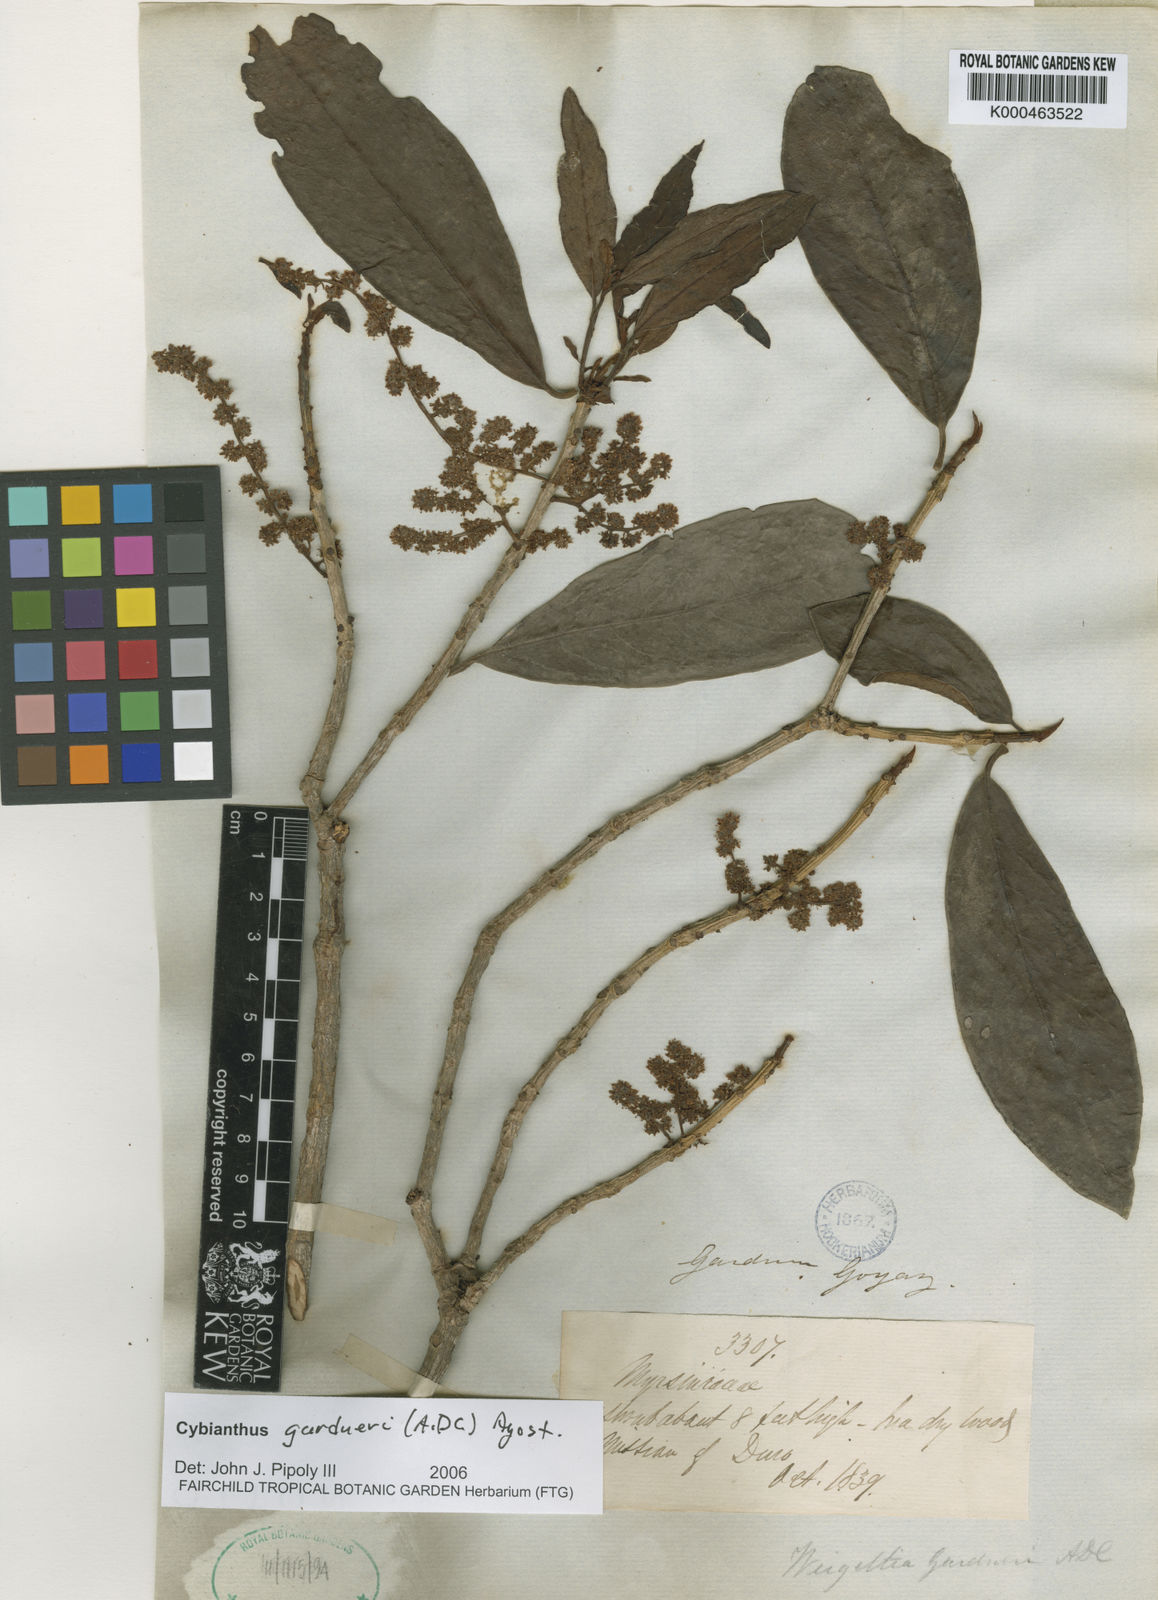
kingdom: Plantae
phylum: Tracheophyta
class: Magnoliopsida
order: Ericales
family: Primulaceae
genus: Cybianthus
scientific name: Cybianthus gardneri
